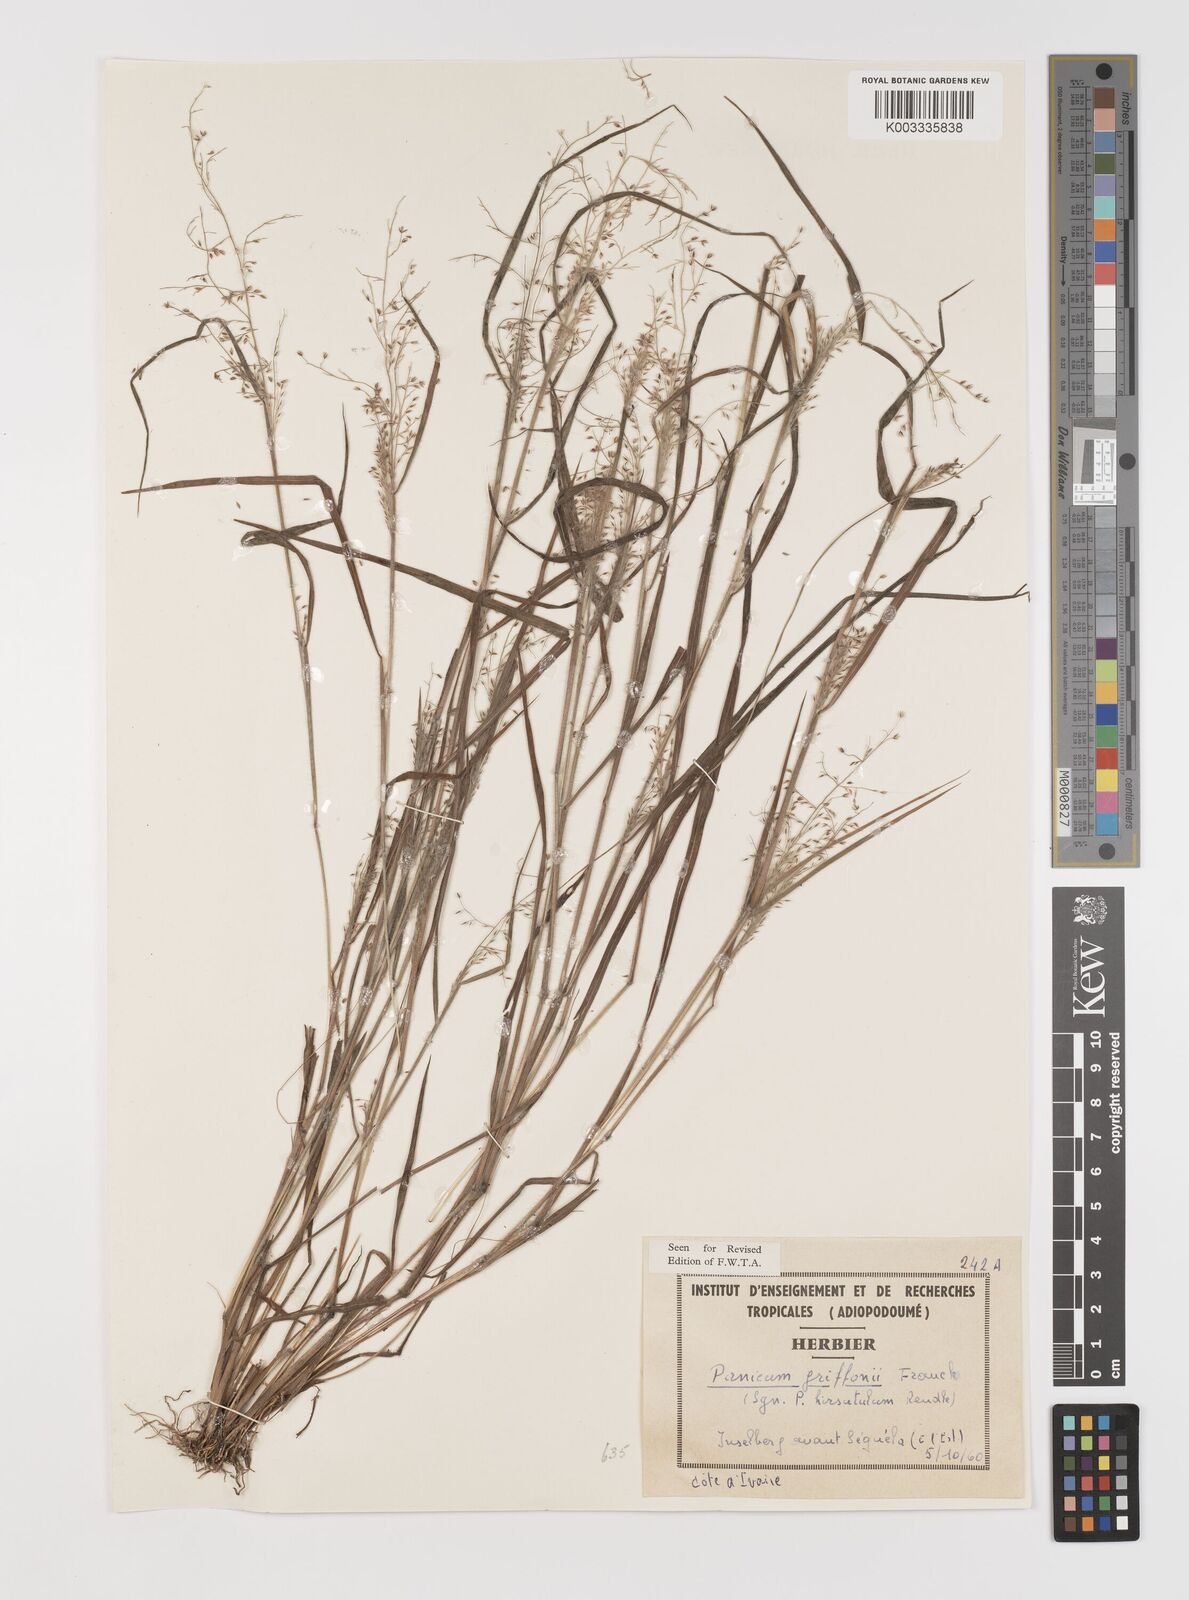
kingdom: Plantae
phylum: Tracheophyta
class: Liliopsida
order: Poales
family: Poaceae
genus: Panicum
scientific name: Panicum griffonii
